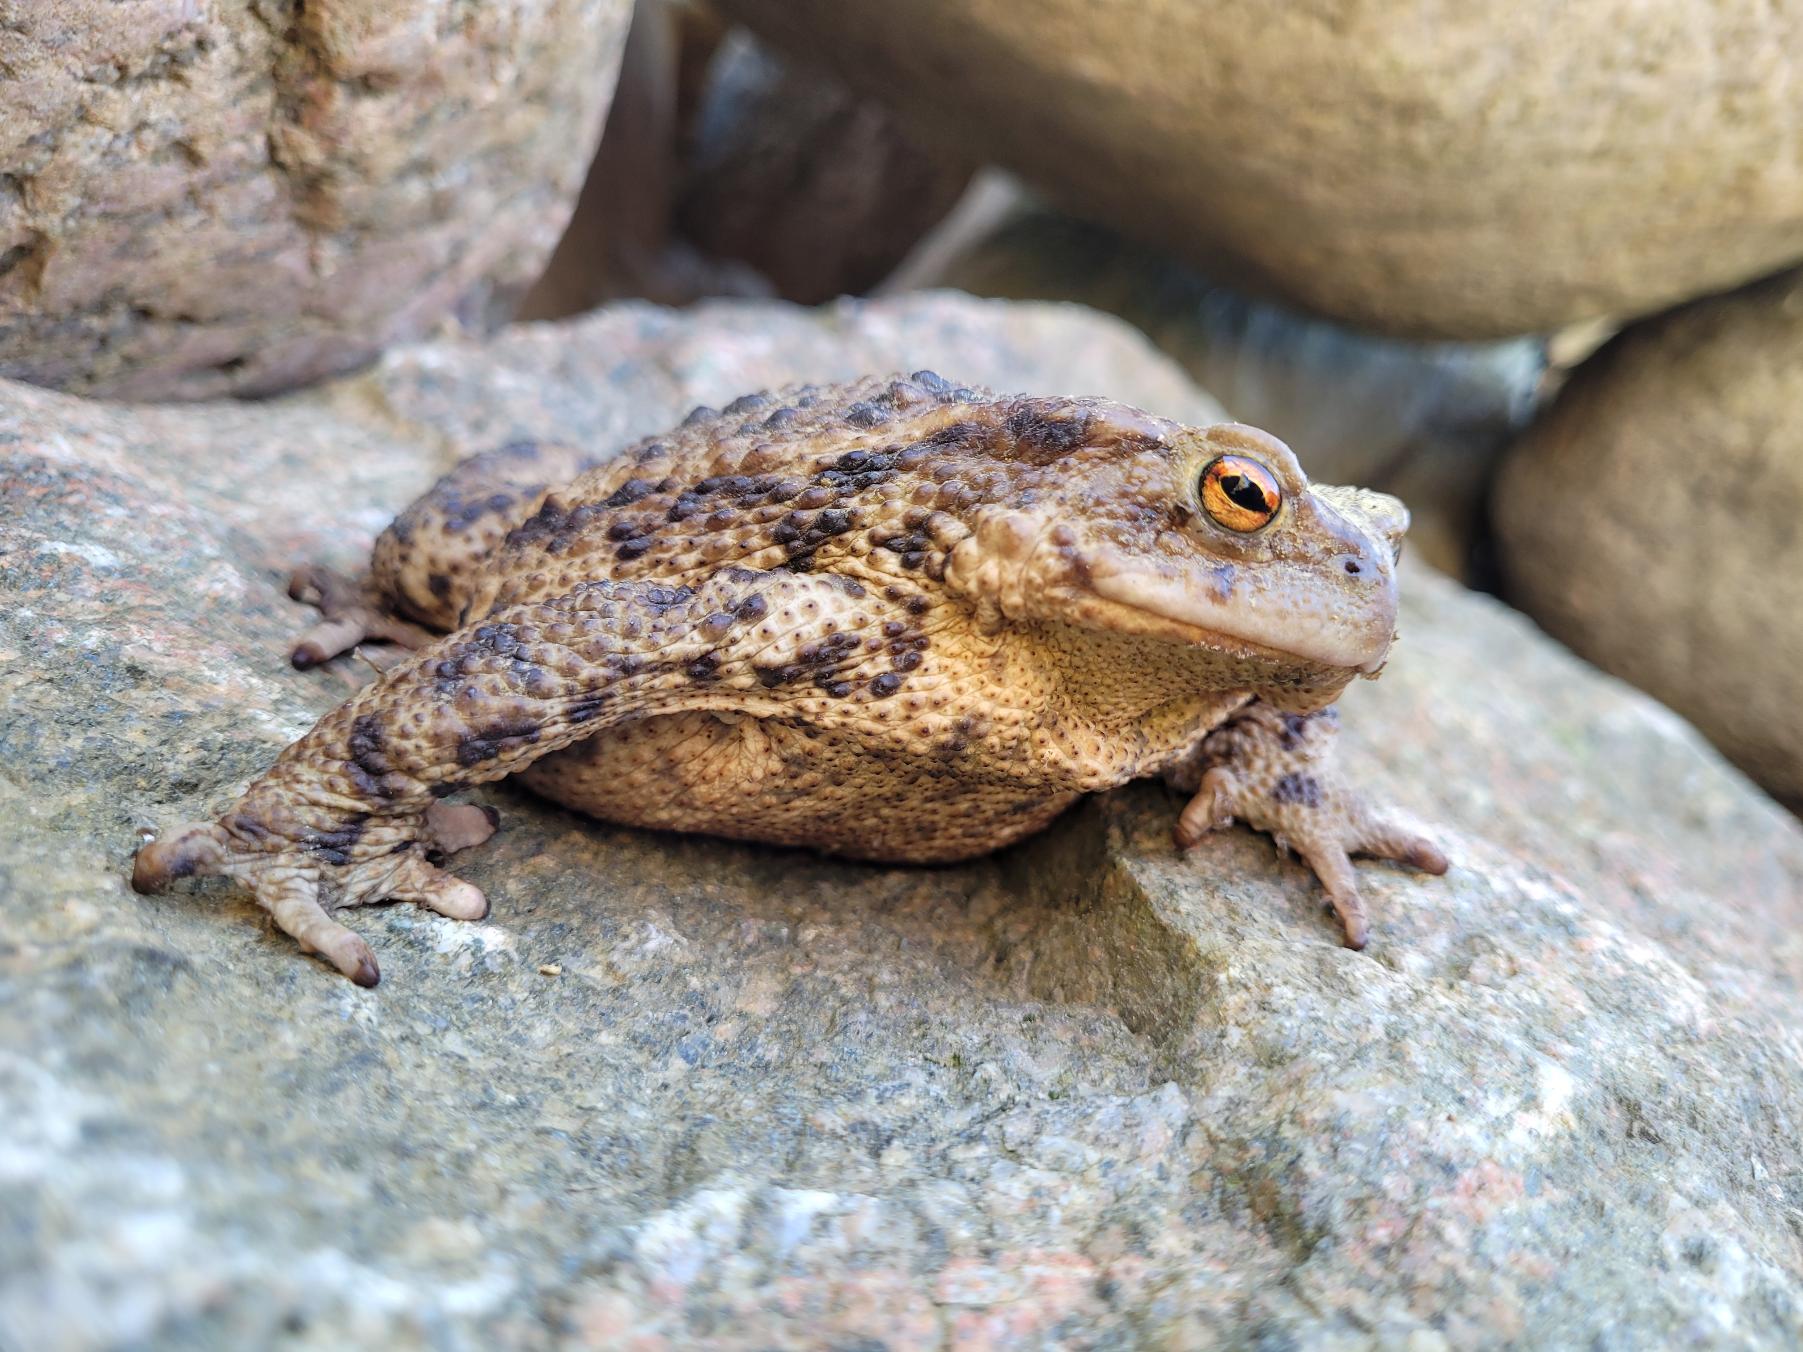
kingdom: Animalia
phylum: Chordata
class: Amphibia
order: Anura
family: Bufonidae
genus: Bufo
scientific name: Bufo bufo
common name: Skrubtudse
